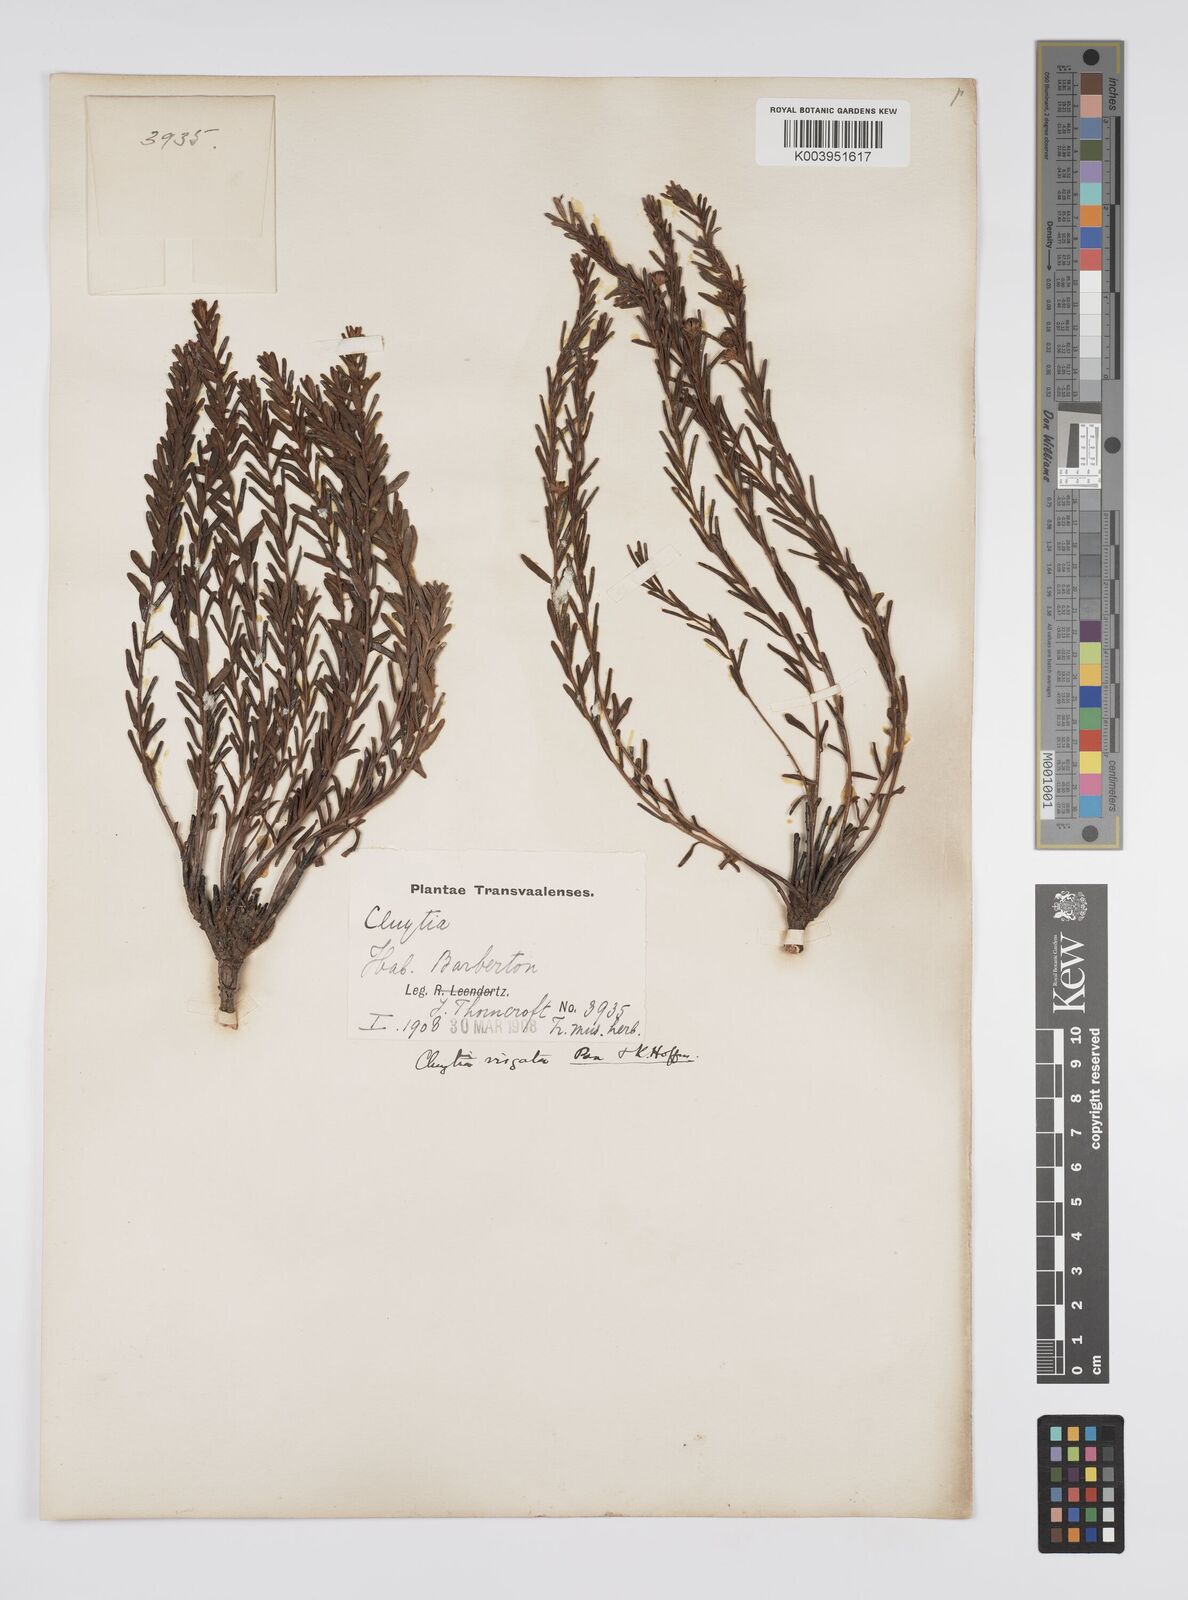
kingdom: Plantae
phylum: Tracheophyta
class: Magnoliopsida
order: Malpighiales
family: Peraceae
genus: Clutia
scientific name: Clutia virgata
